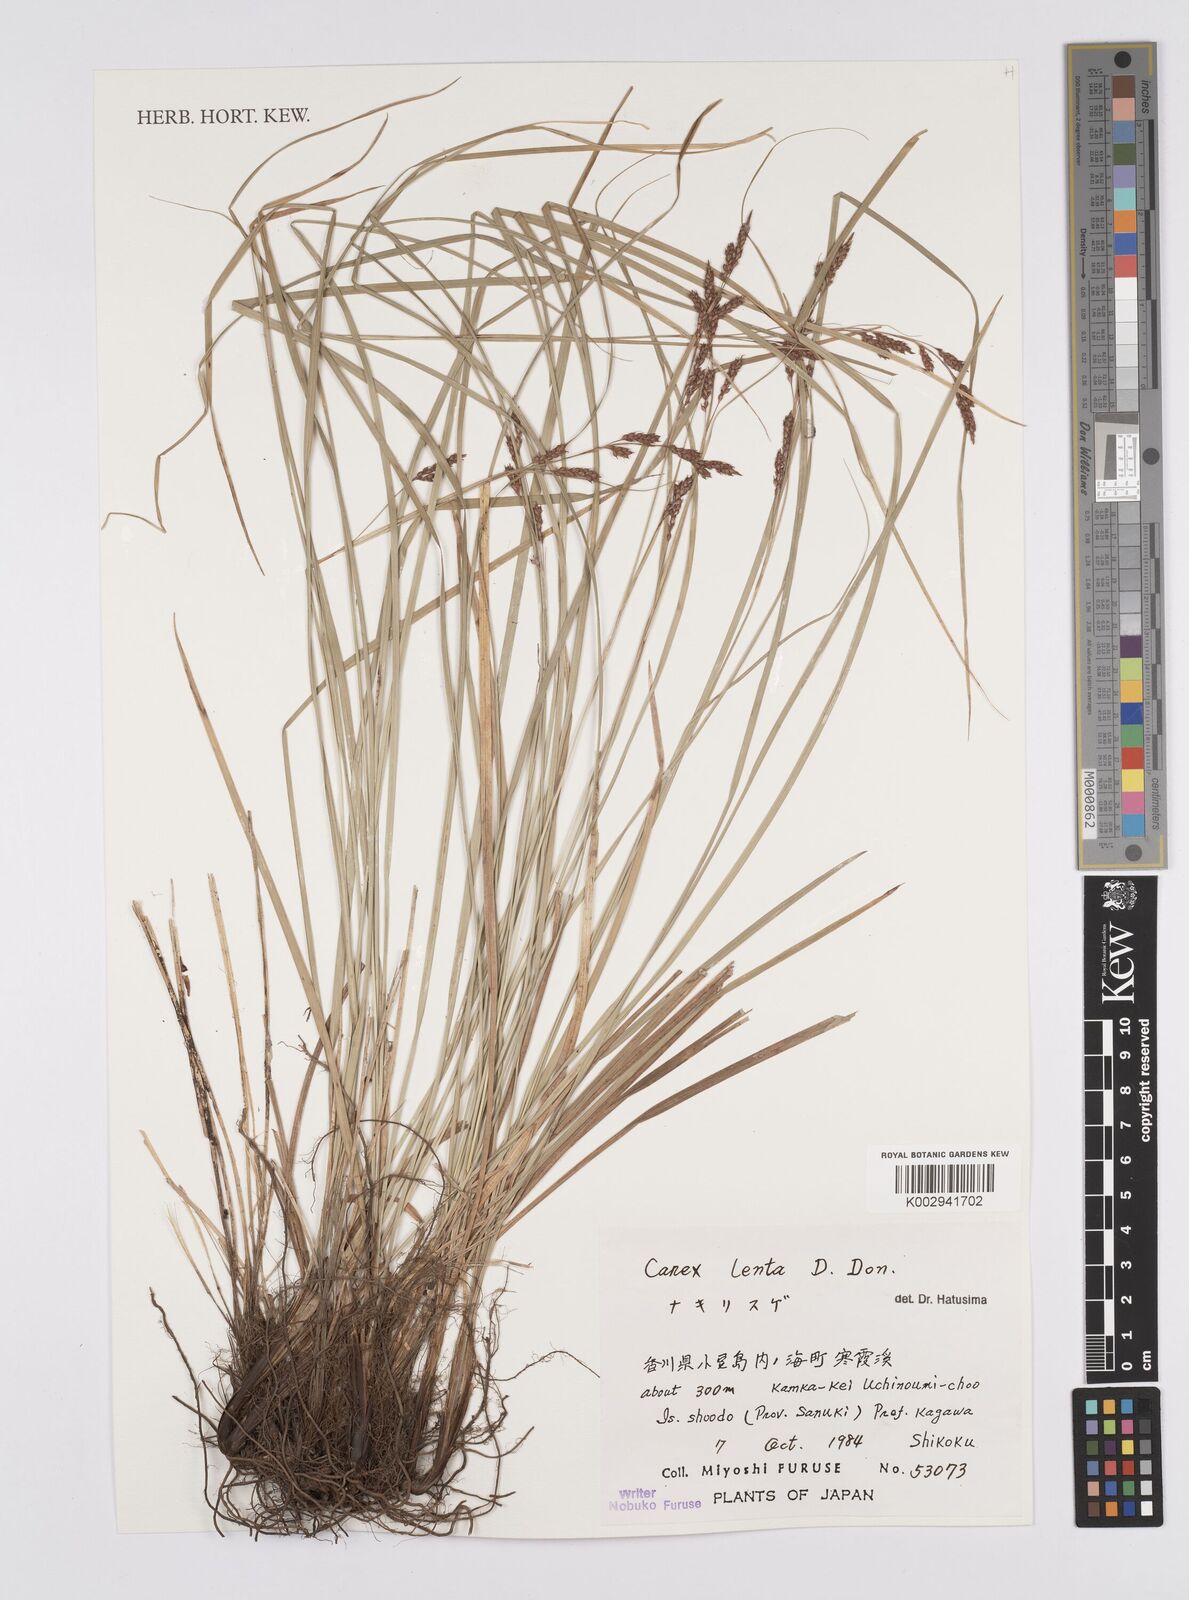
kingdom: Plantae
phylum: Tracheophyta
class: Liliopsida
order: Poales
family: Cyperaceae
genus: Carex
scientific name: Carex brunnea
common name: Greater brown sedge
